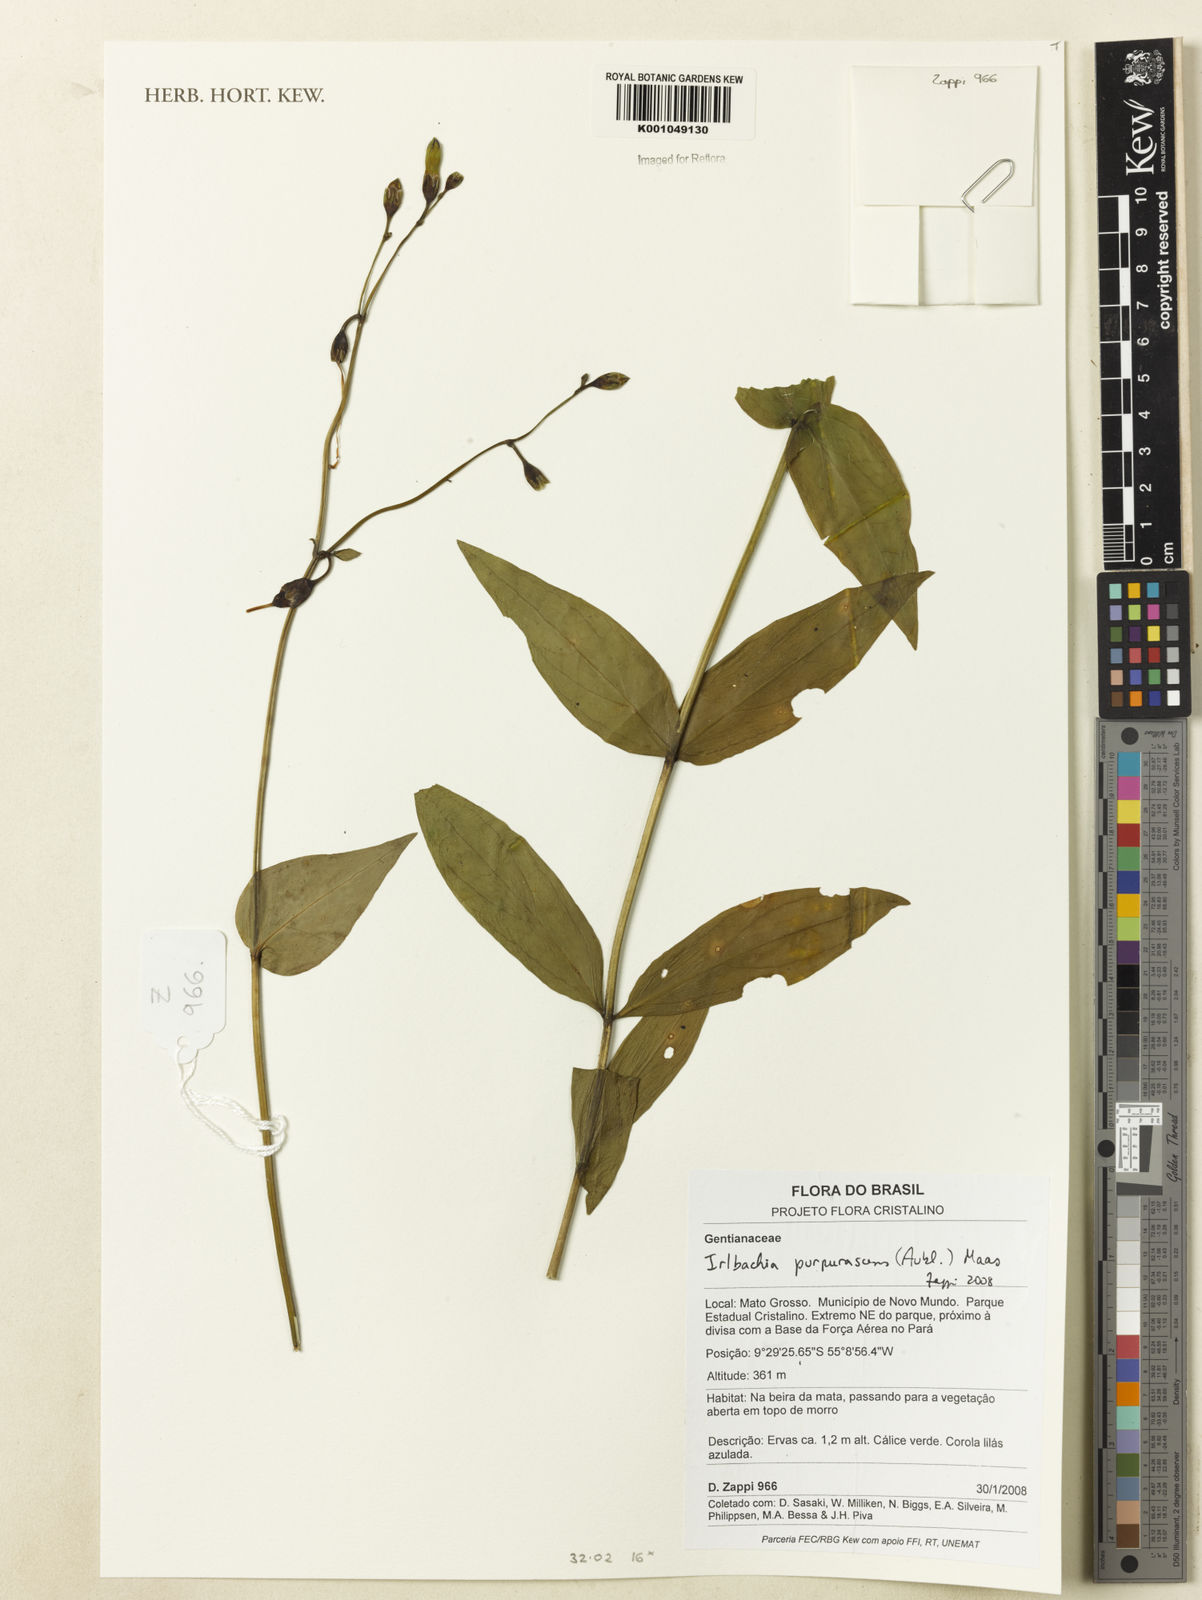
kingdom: Plantae
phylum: Tracheophyta
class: Magnoliopsida
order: Gentianales
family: Gentianaceae
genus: Chelonanthus
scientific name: Chelonanthus purpurascens
